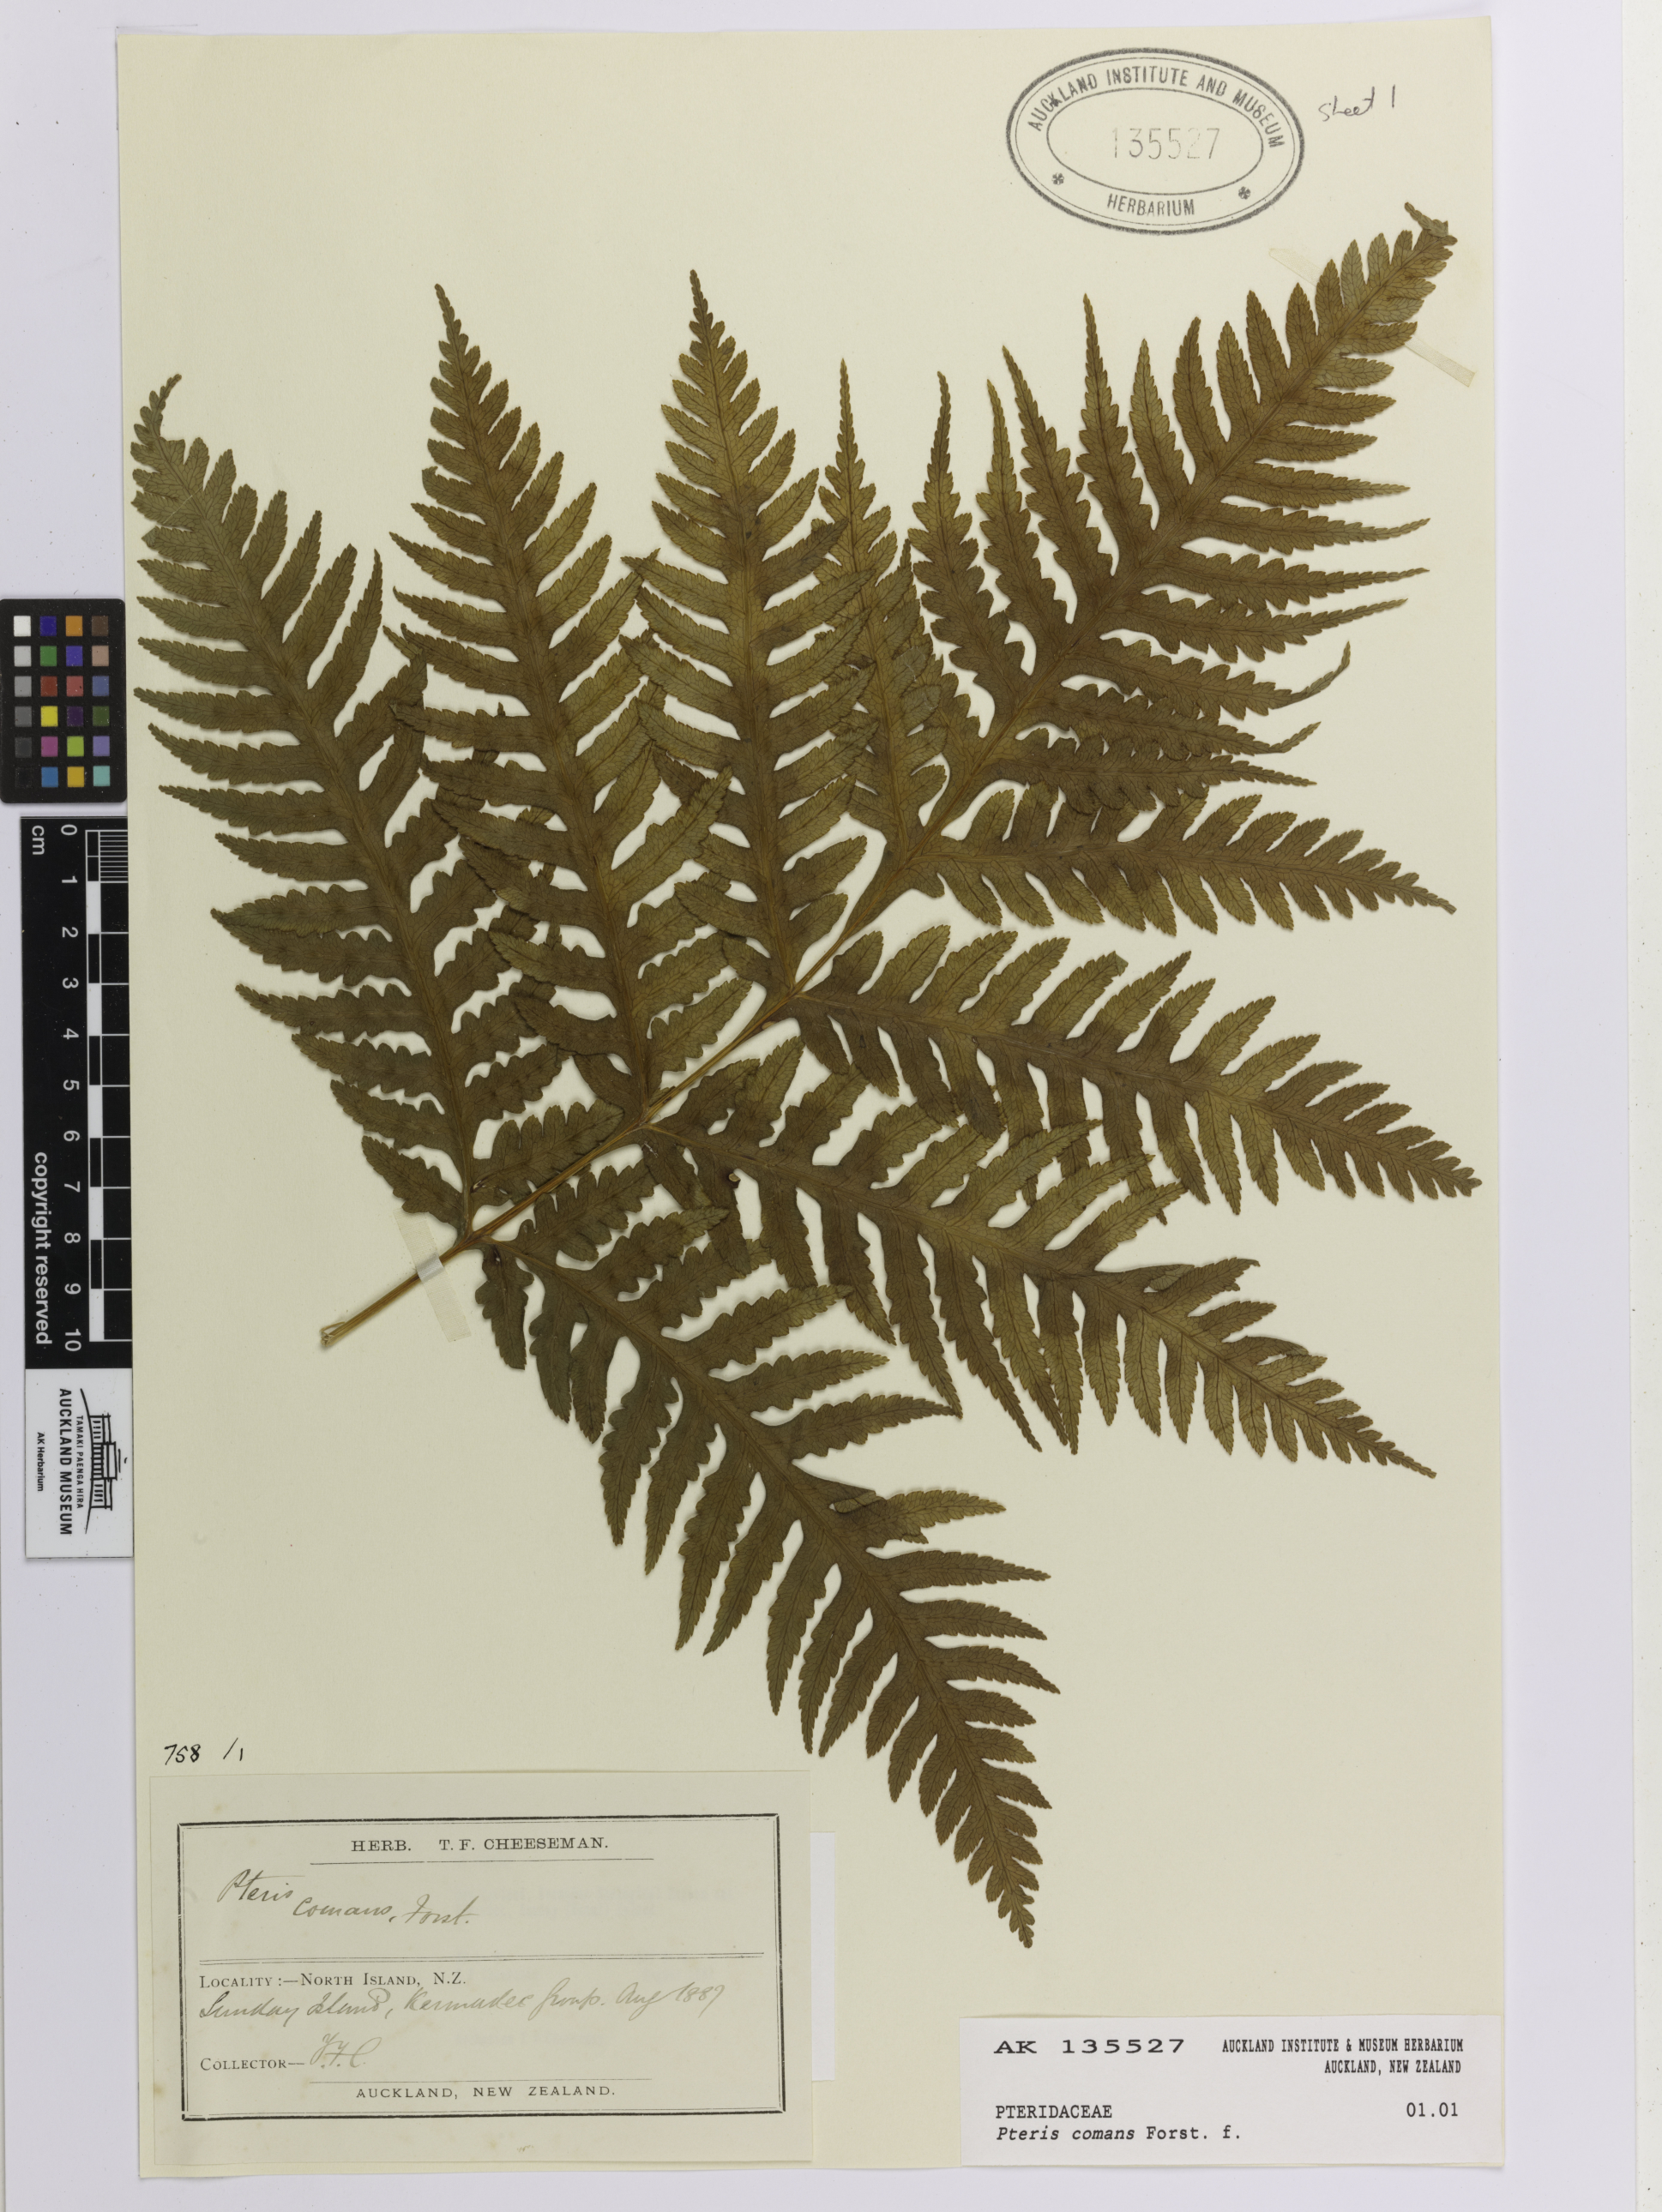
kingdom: Plantae
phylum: Tracheophyta
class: Polypodiopsida
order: Polypodiales
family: Pteridaceae
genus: Pteris
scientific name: Pteris comans
